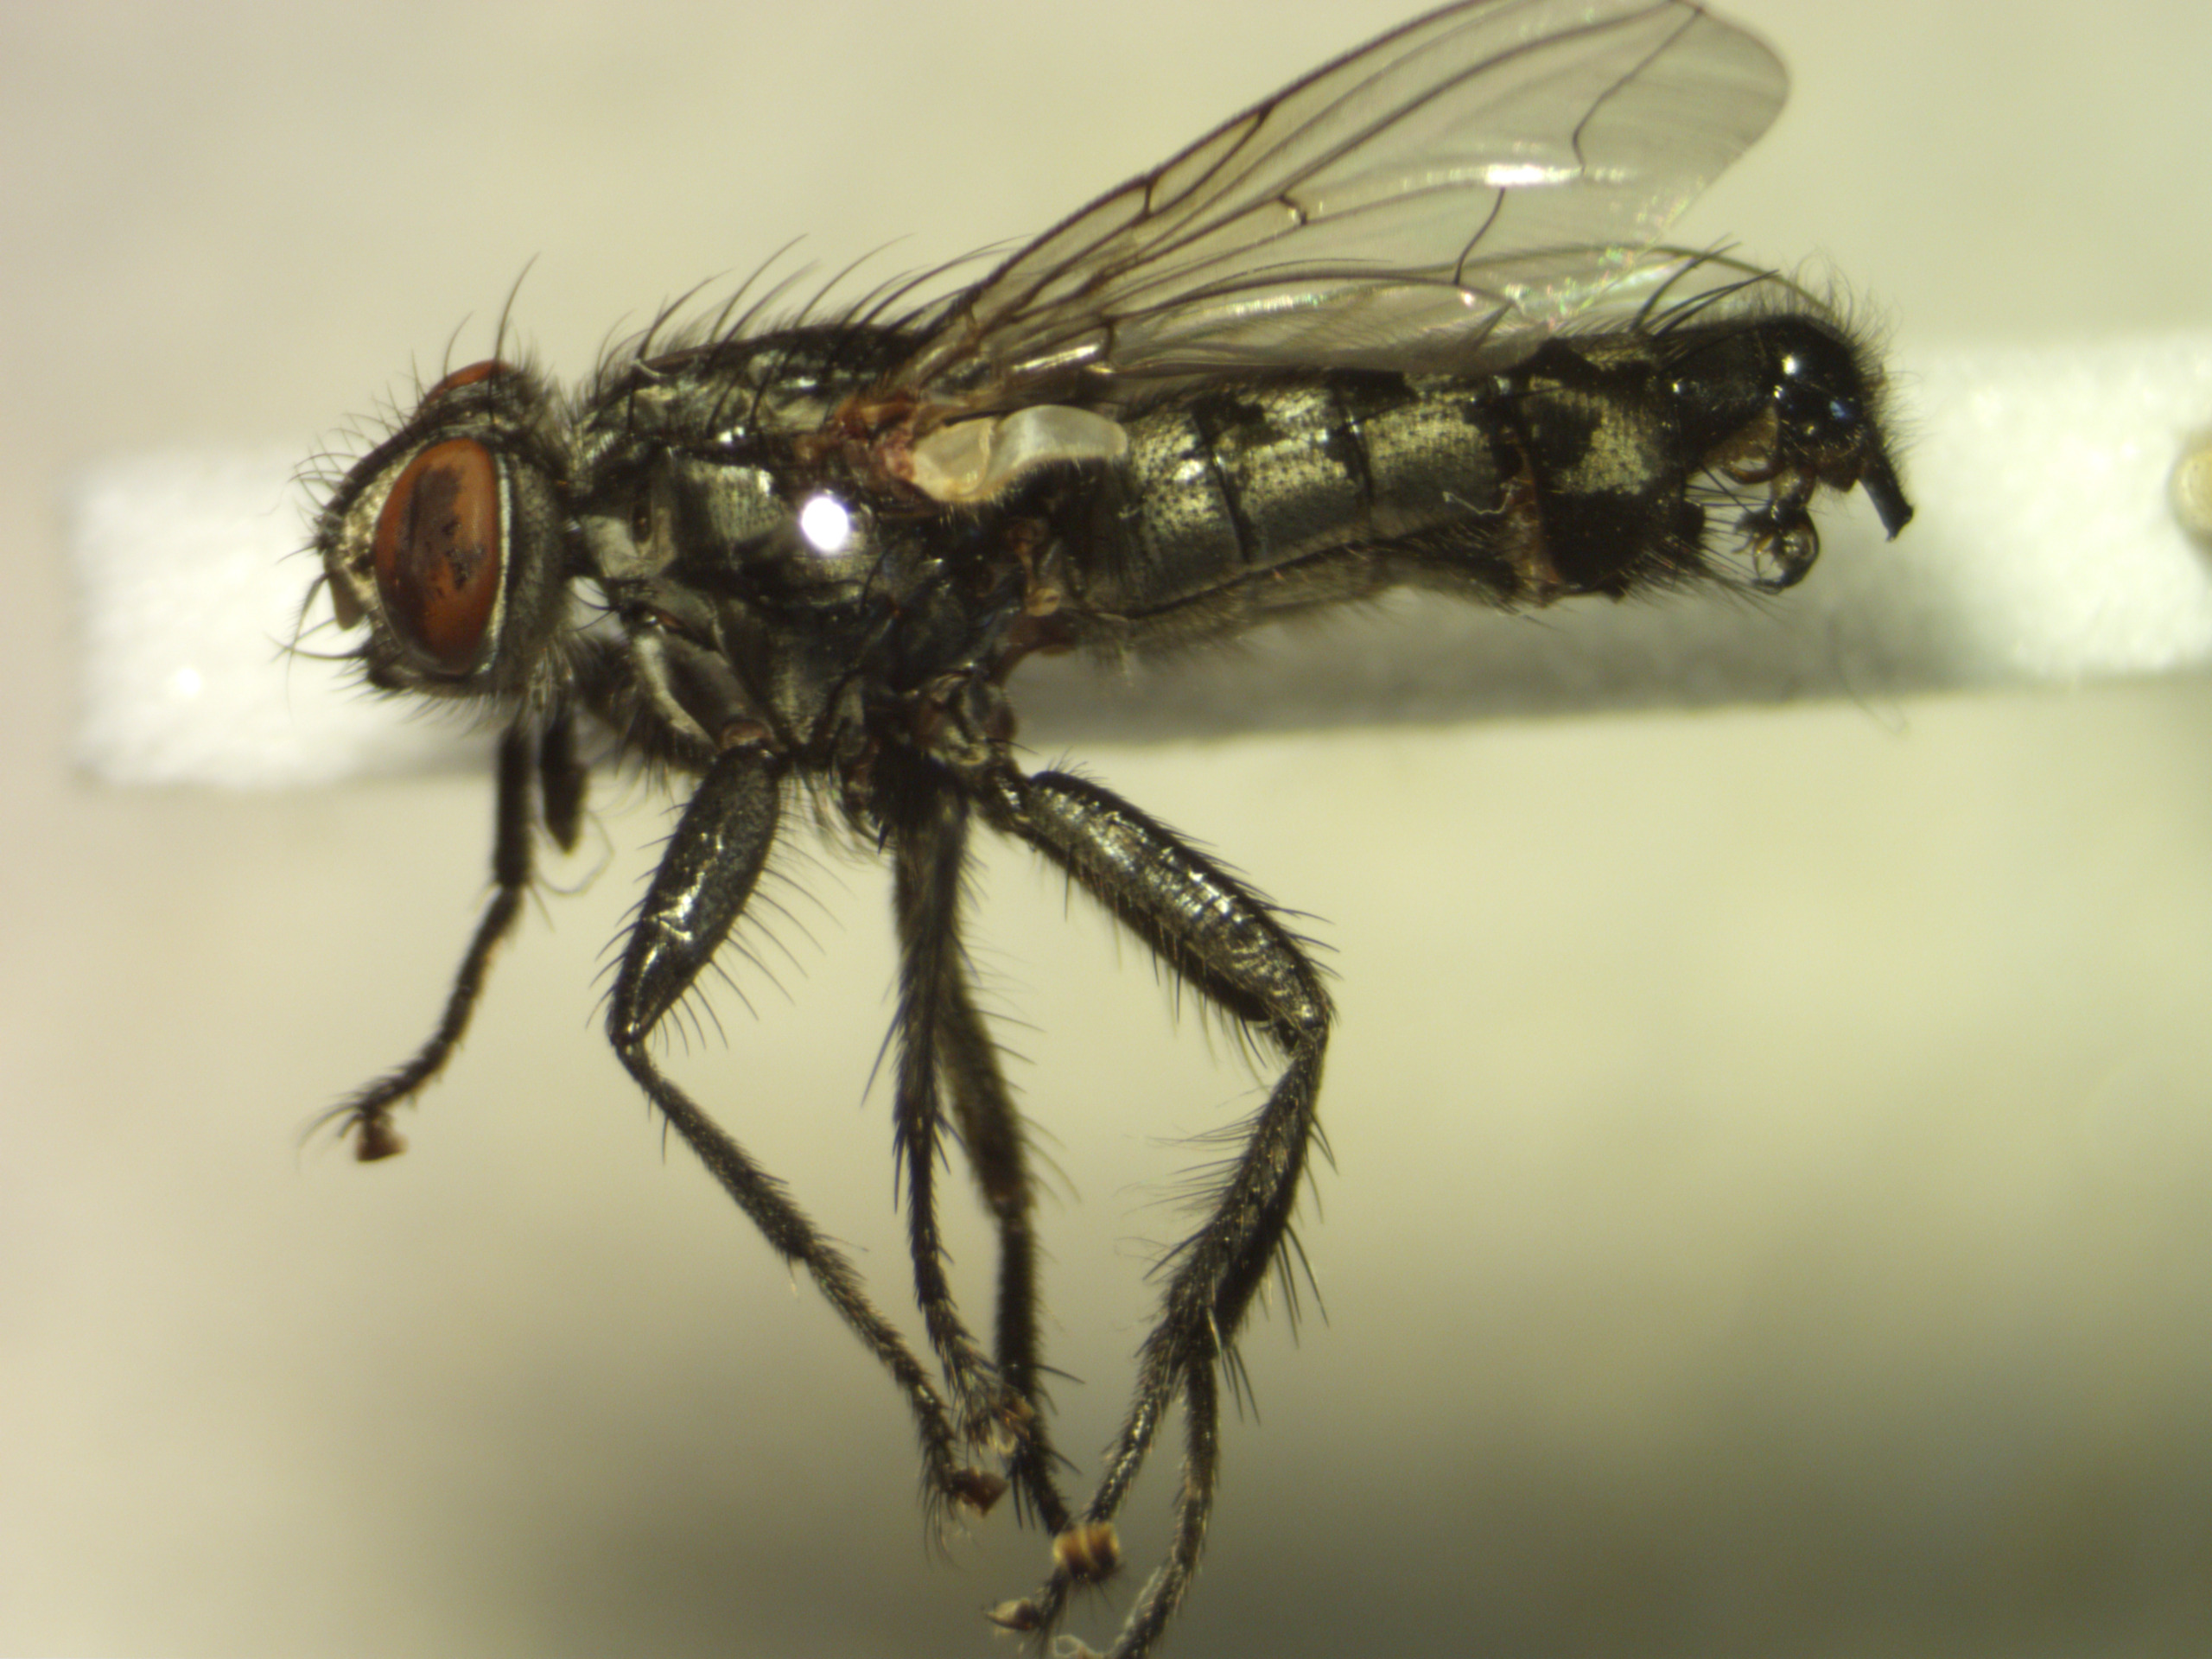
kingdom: Animalia
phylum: Arthropoda
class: Insecta
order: Diptera
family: Sarcophagidae
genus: Sarcophaga
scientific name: Sarcophaga incisilobata
